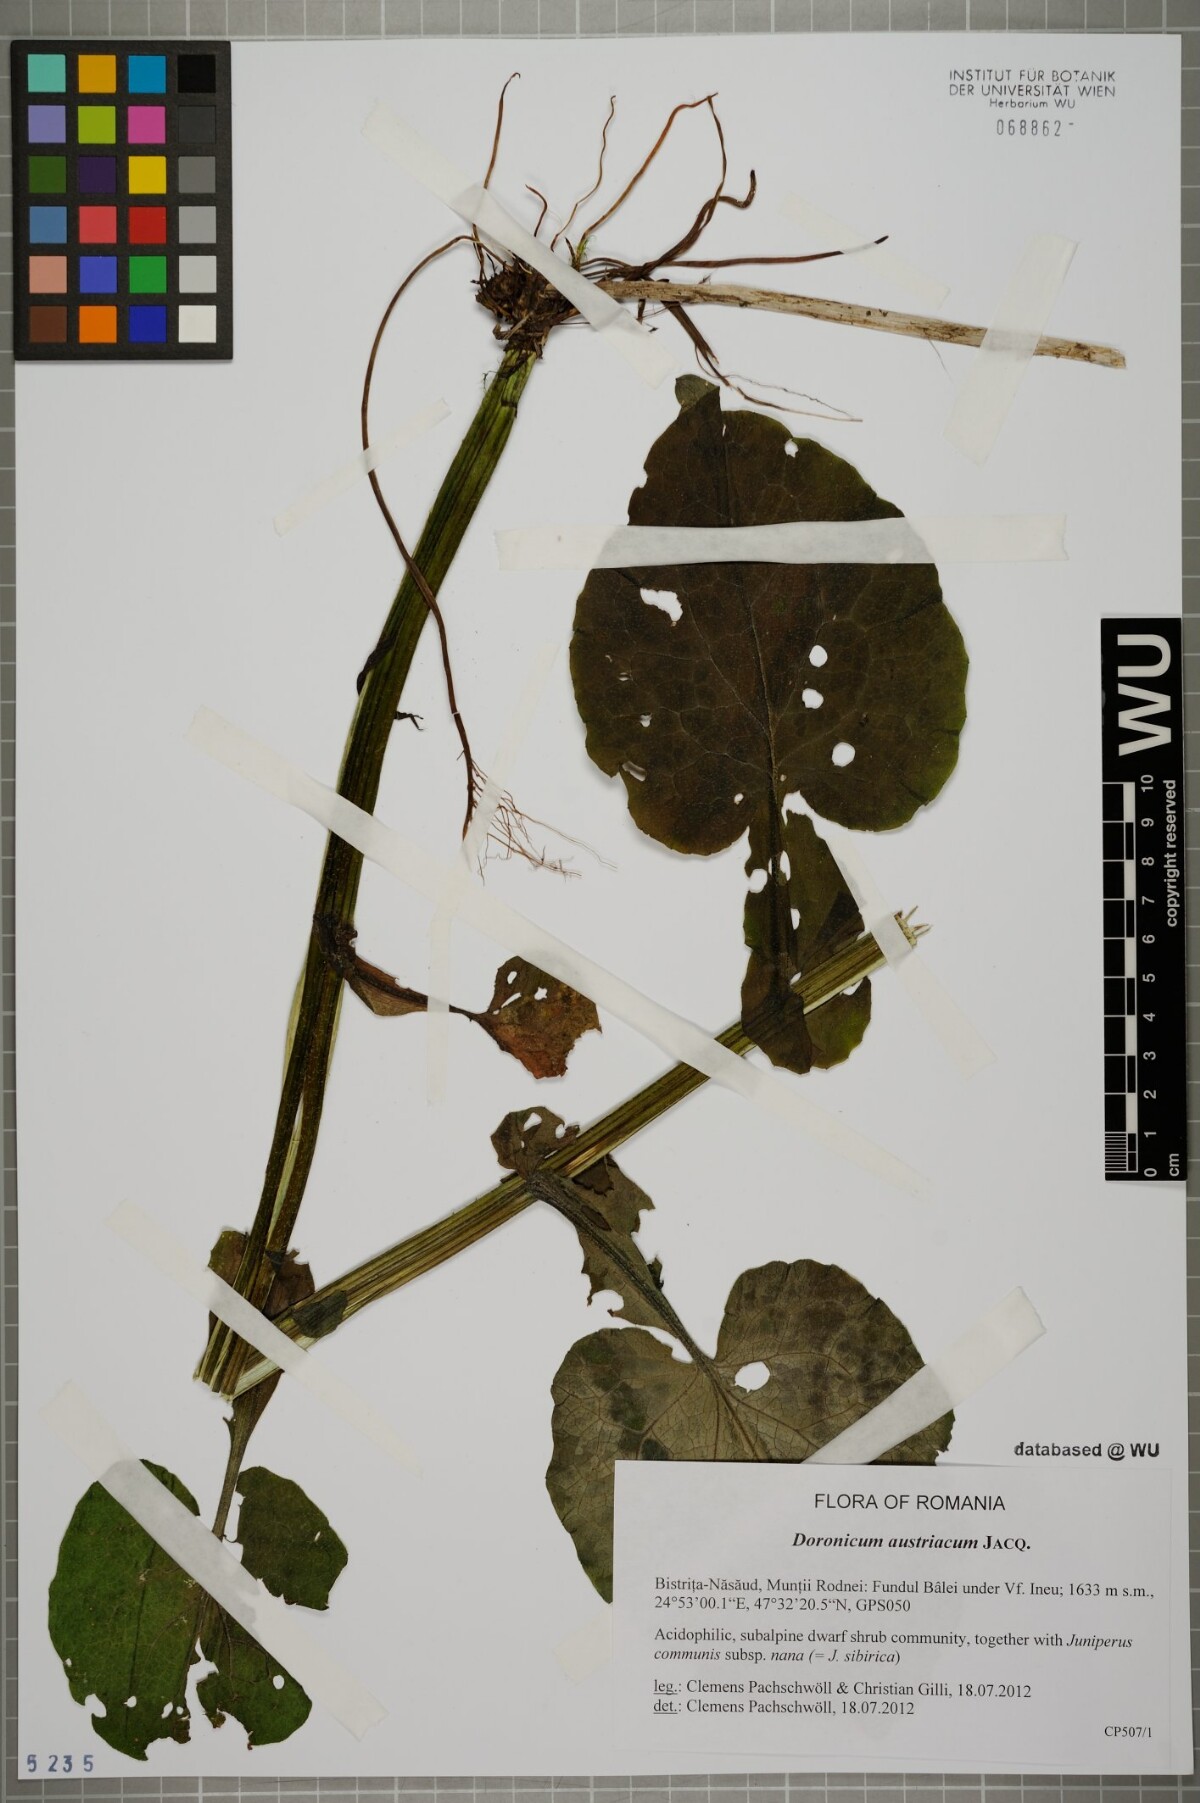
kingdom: Plantae
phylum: Tracheophyta
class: Magnoliopsida
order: Asterales
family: Asteraceae
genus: Doronicum
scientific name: Doronicum austriacum
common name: Austrian leopard's-bane
